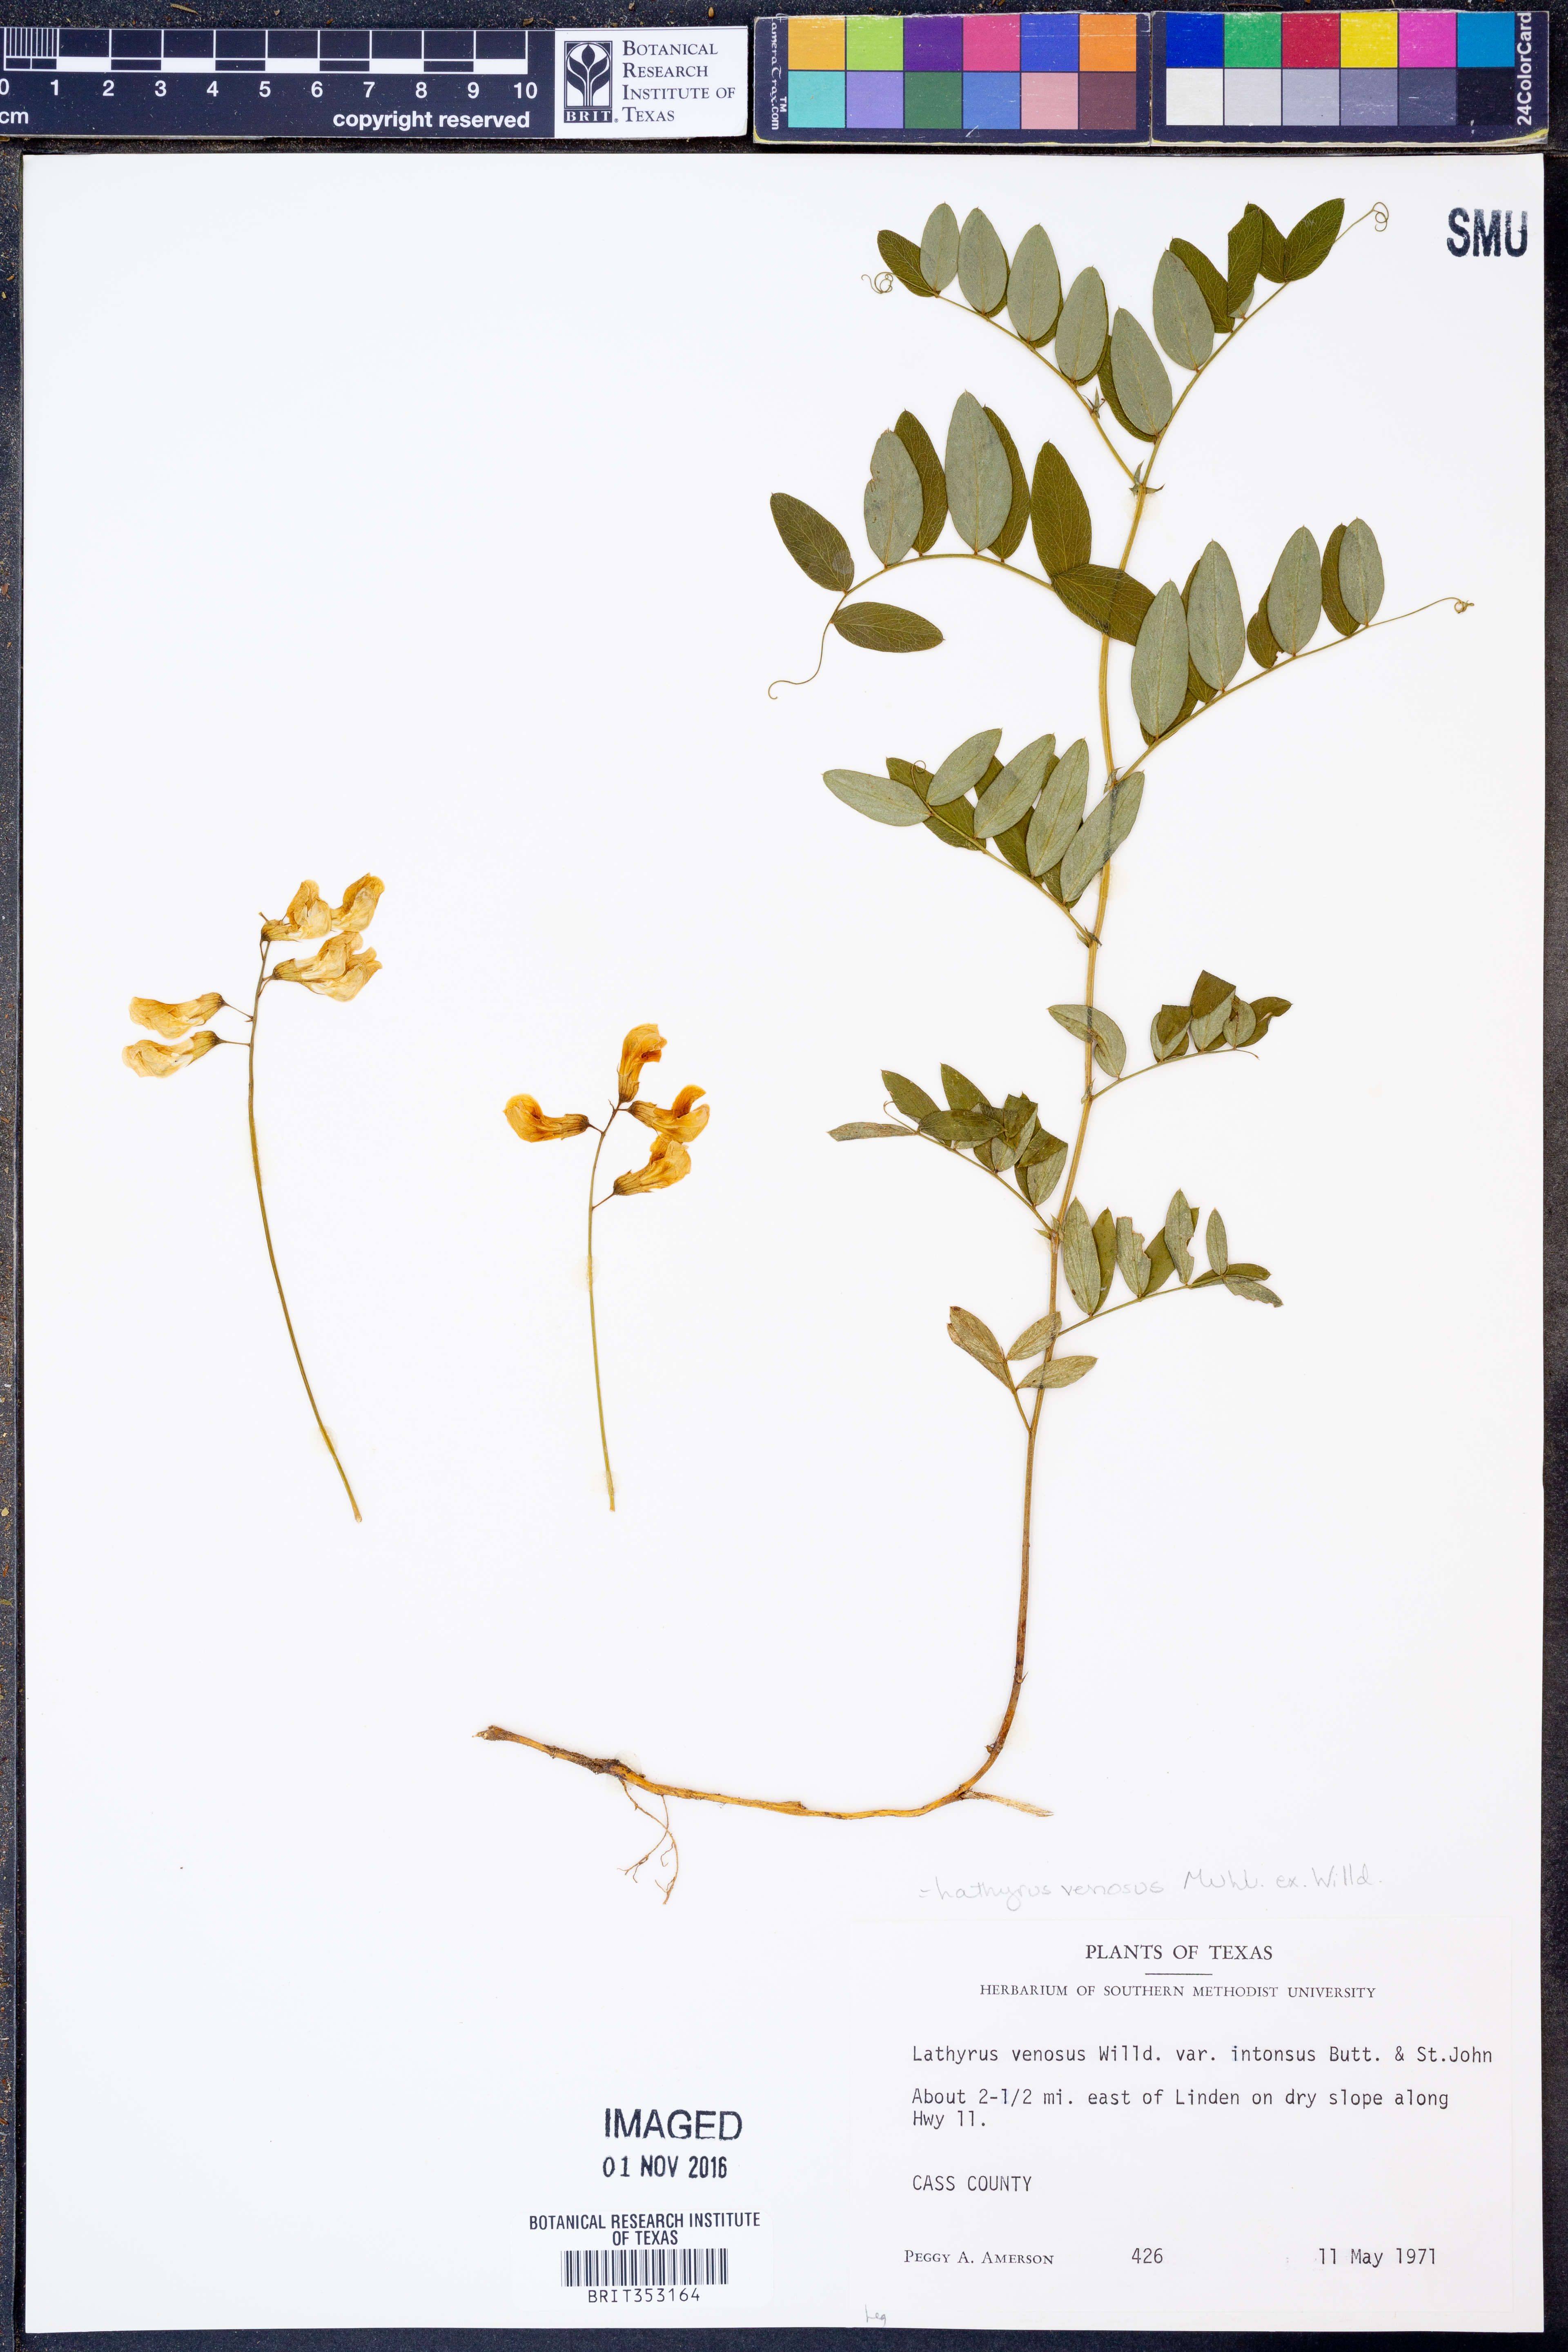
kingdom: Plantae
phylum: Tracheophyta
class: Magnoliopsida
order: Fabales
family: Fabaceae
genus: Lathyrus
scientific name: Lathyrus venosus
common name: Forest-pea
